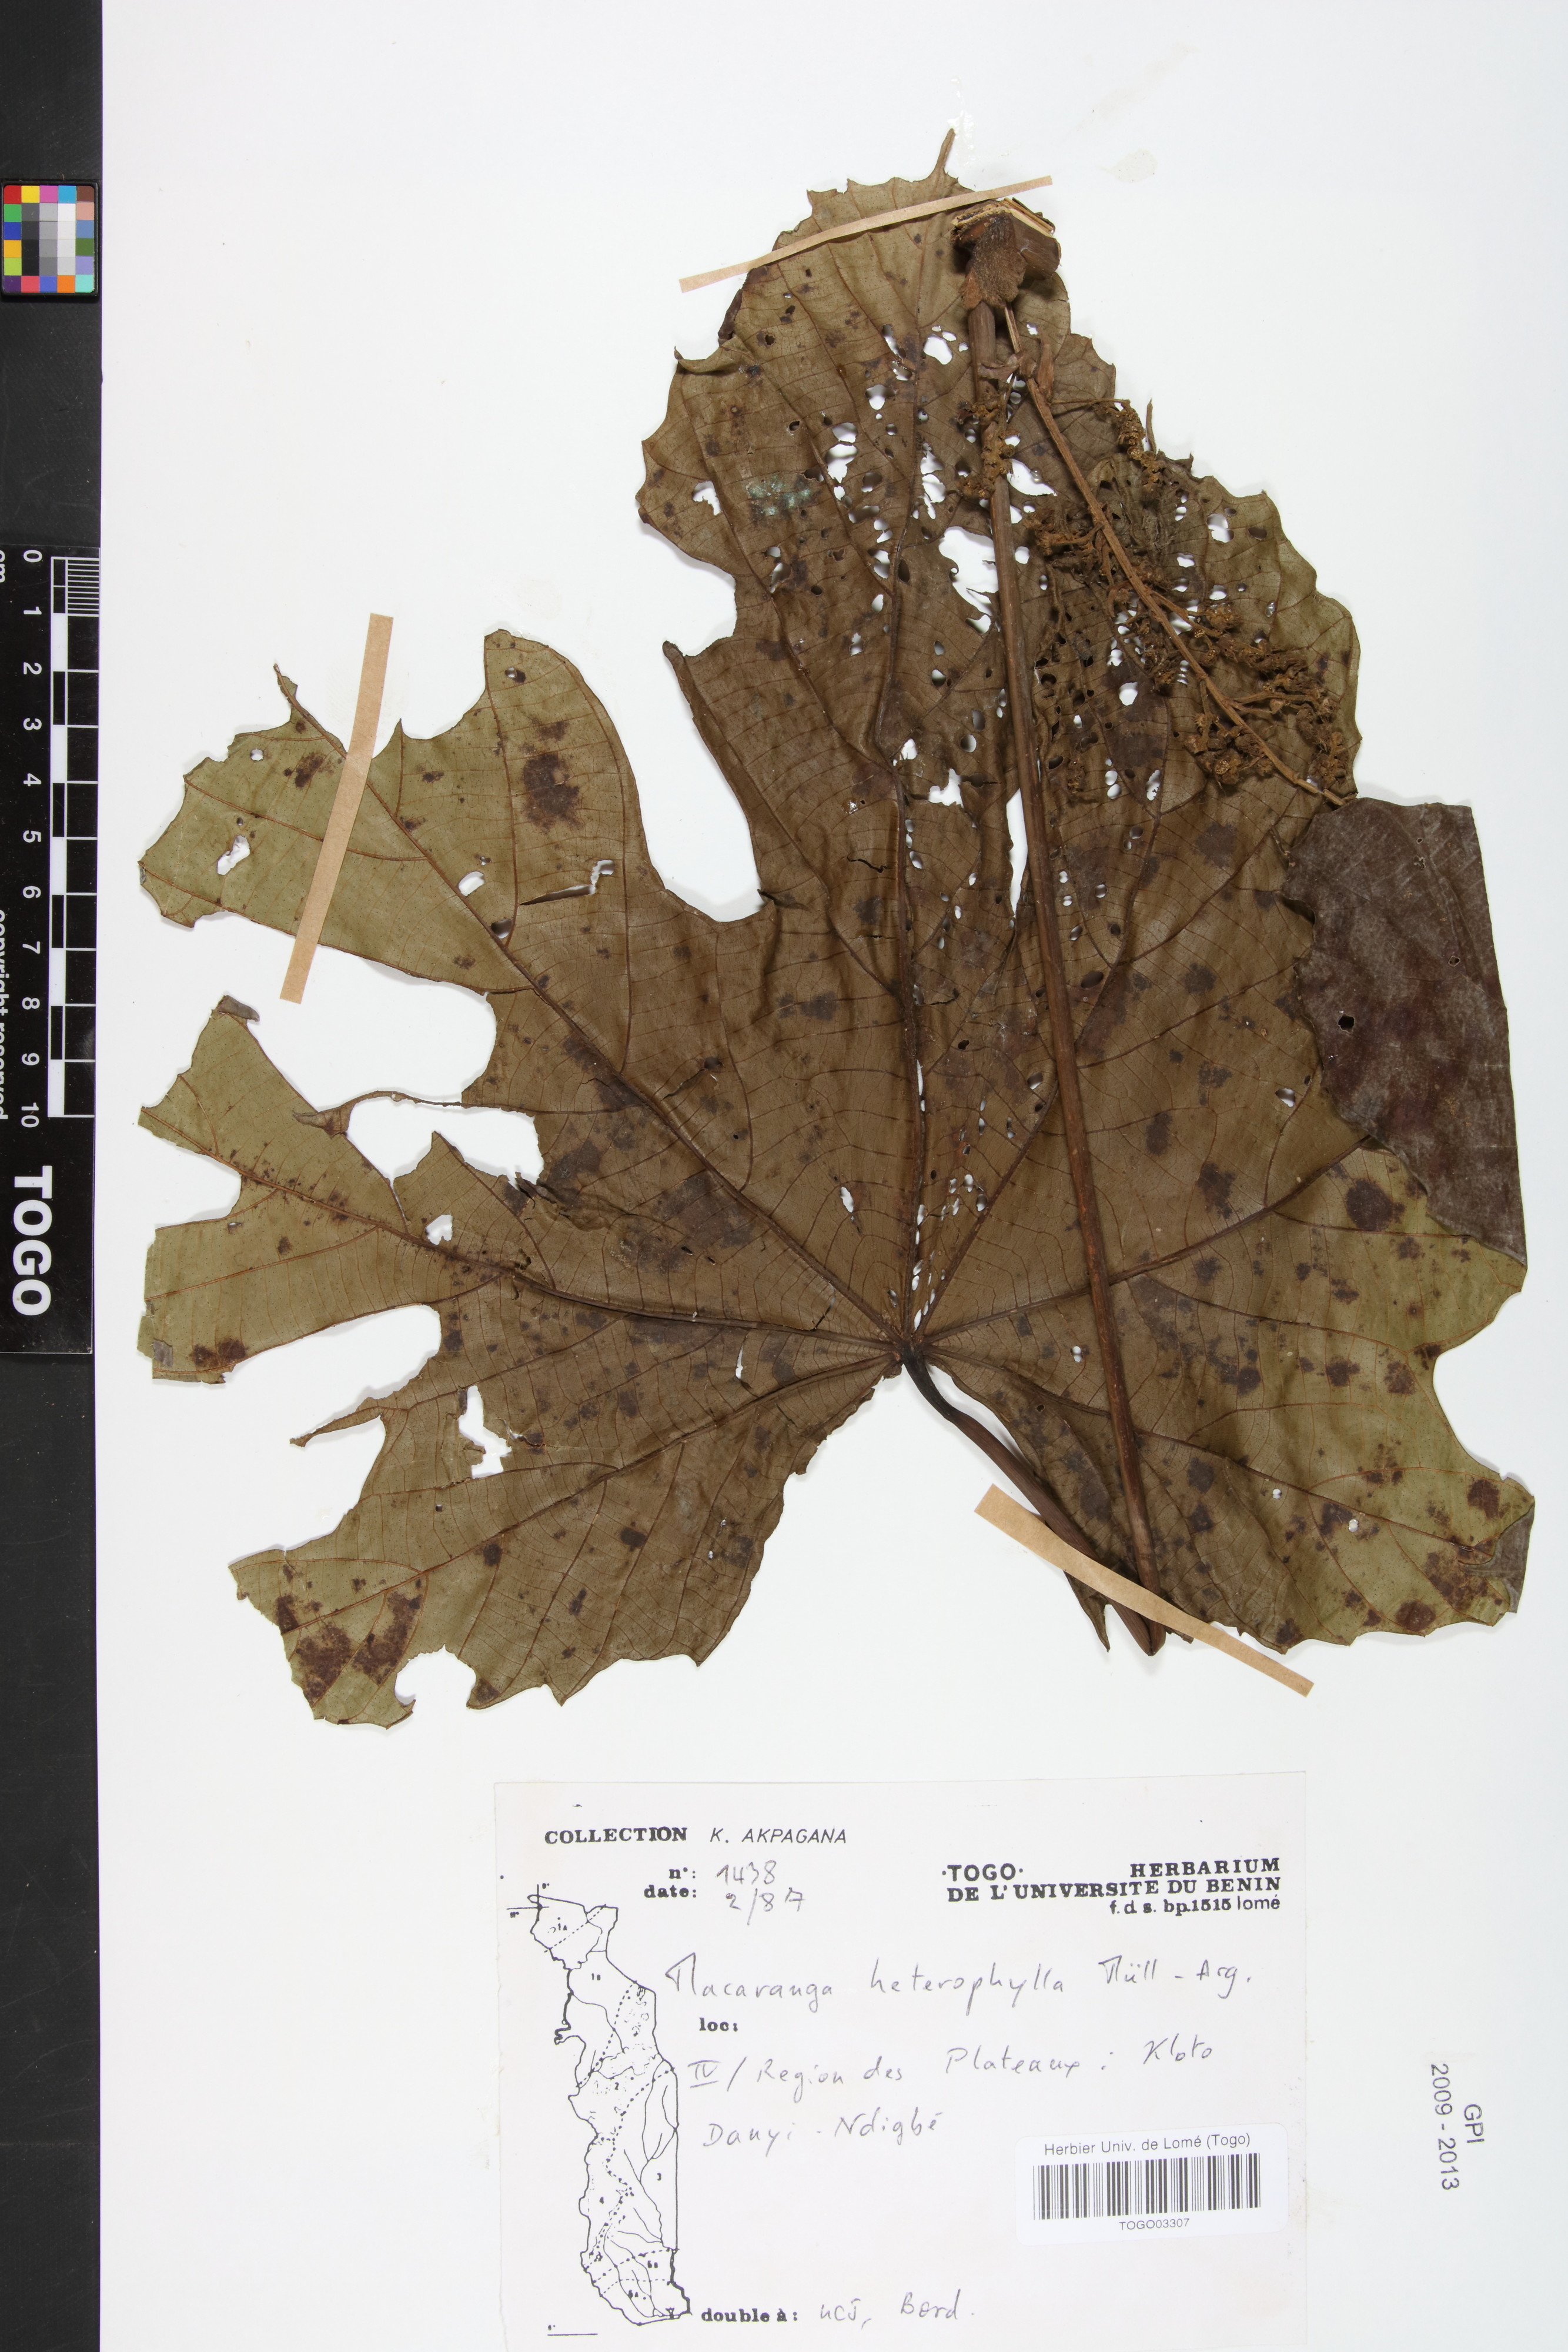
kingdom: Plantae
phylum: Tracheophyta
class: Magnoliopsida
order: Malpighiales
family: Euphorbiaceae
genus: Macaranga
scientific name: Macaranga heterophylla
